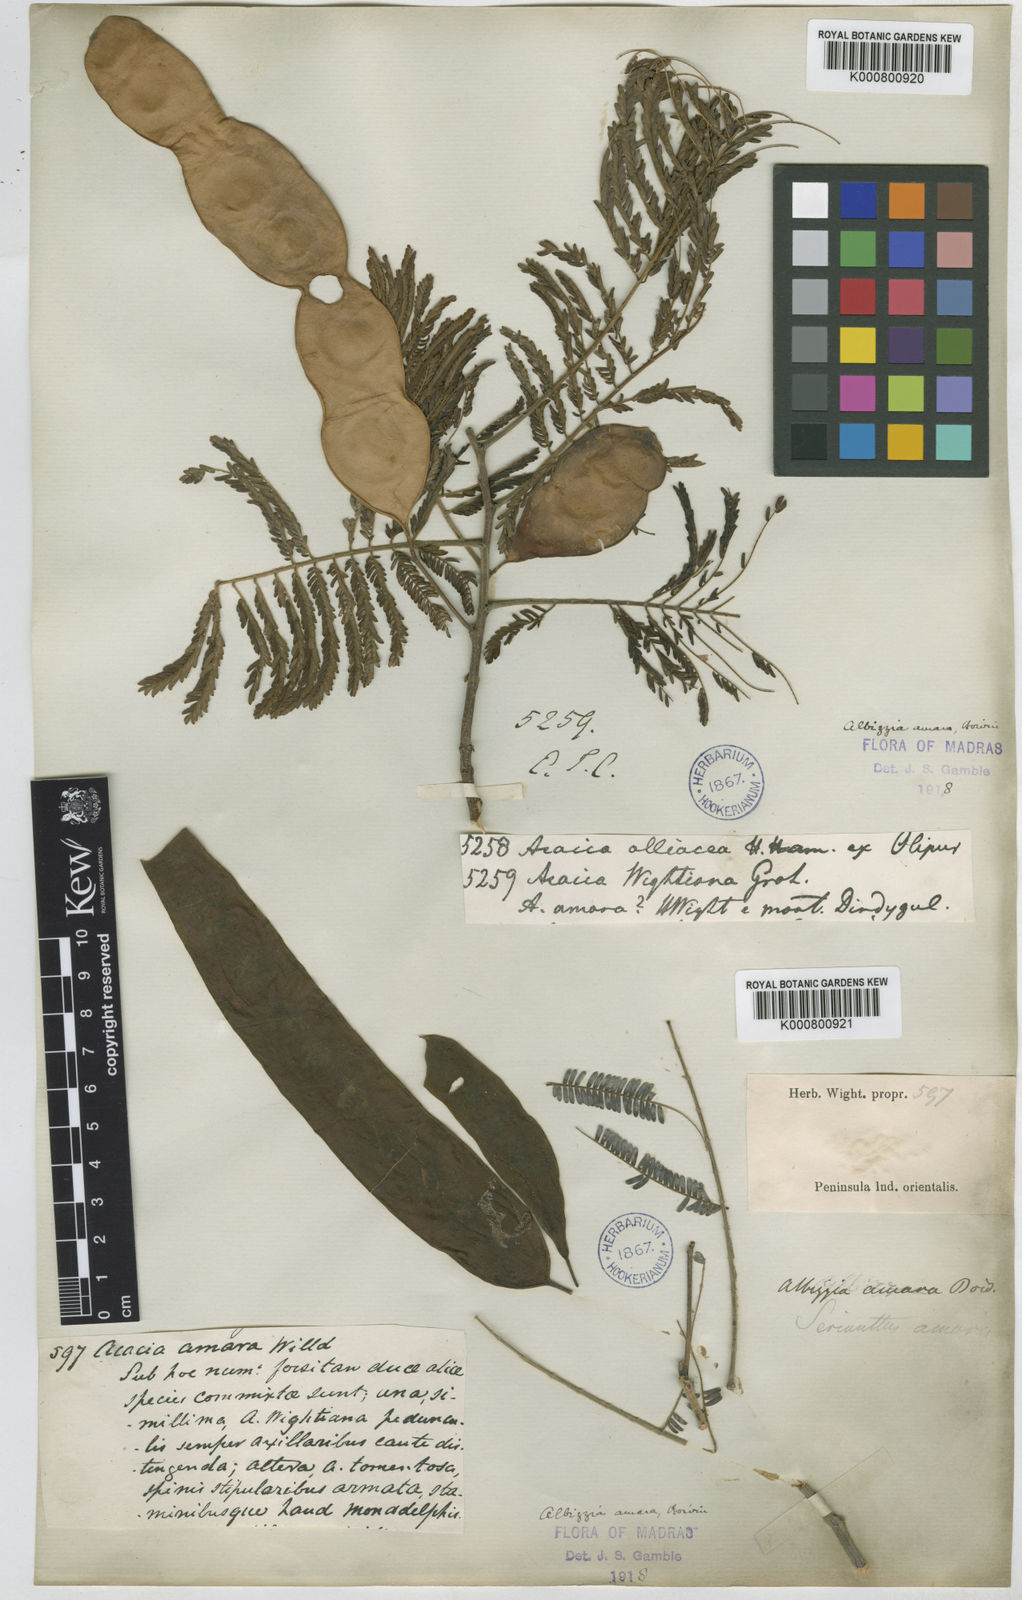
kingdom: Plantae
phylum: Tracheophyta
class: Magnoliopsida
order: Fabales
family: Fabaceae
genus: Albizia
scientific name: Albizia amara
